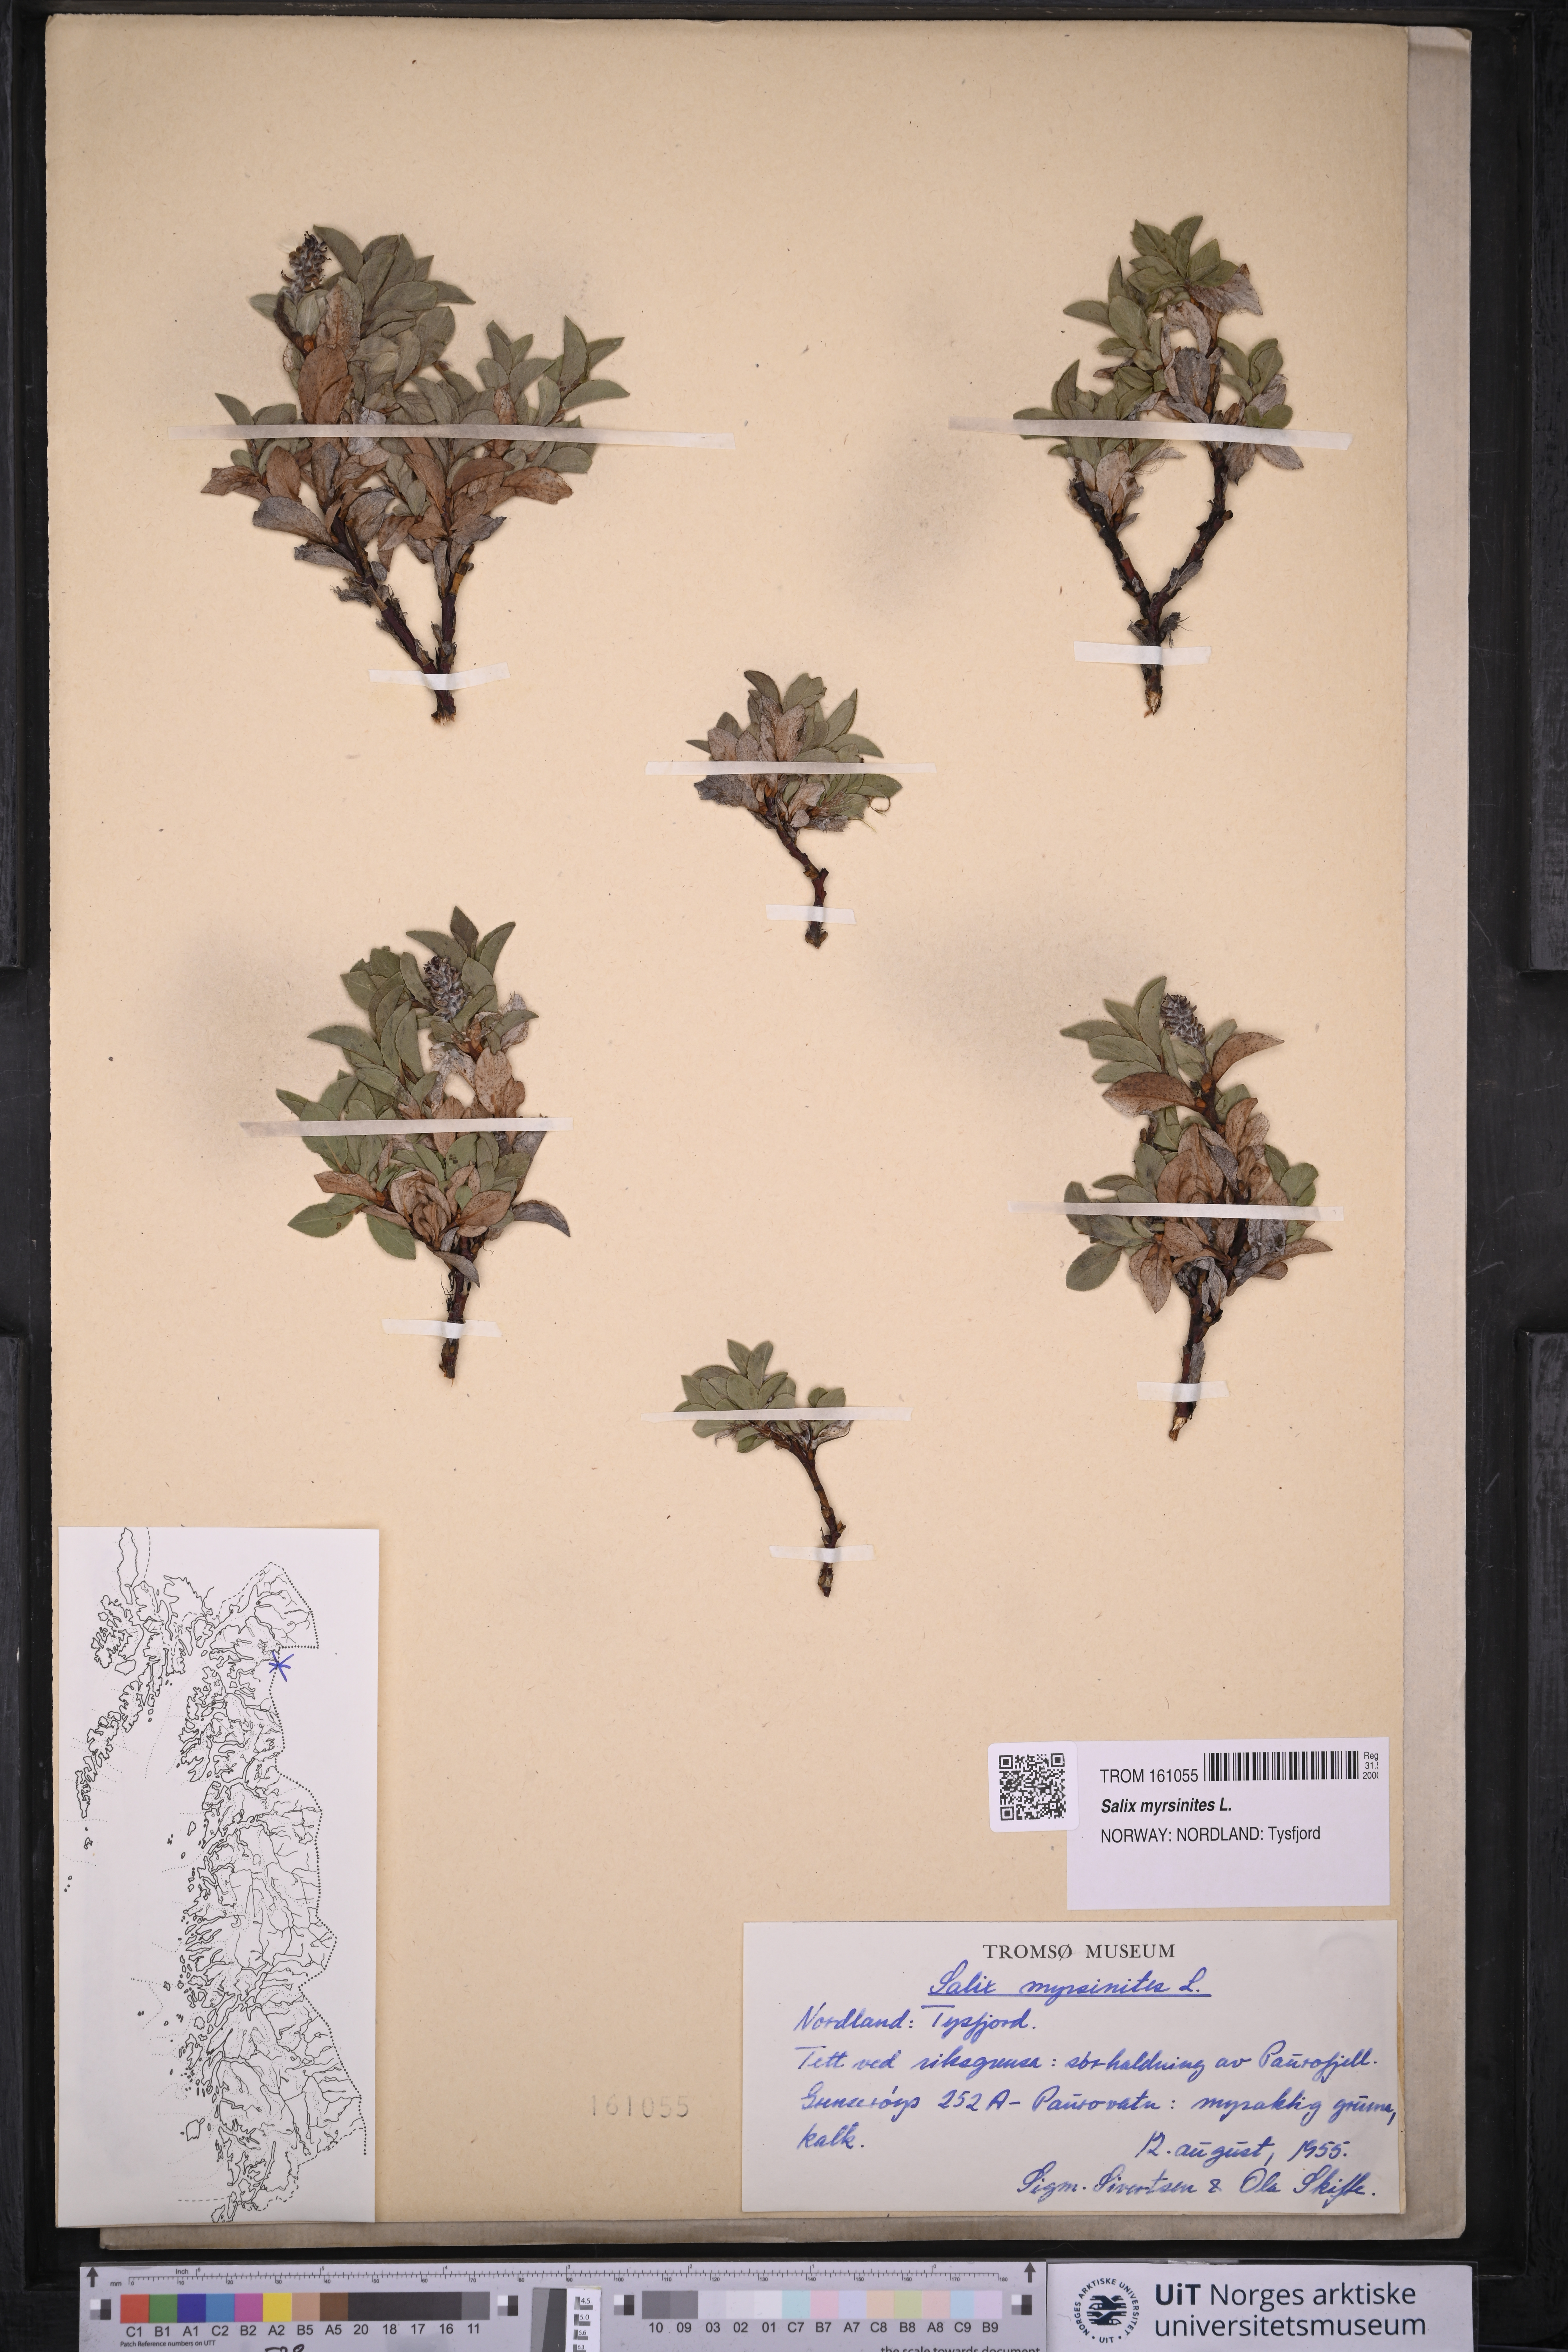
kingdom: Plantae
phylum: Tracheophyta
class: Magnoliopsida
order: Malpighiales
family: Salicaceae
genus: Salix
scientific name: Salix myrsinites
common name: Myrtle willow
